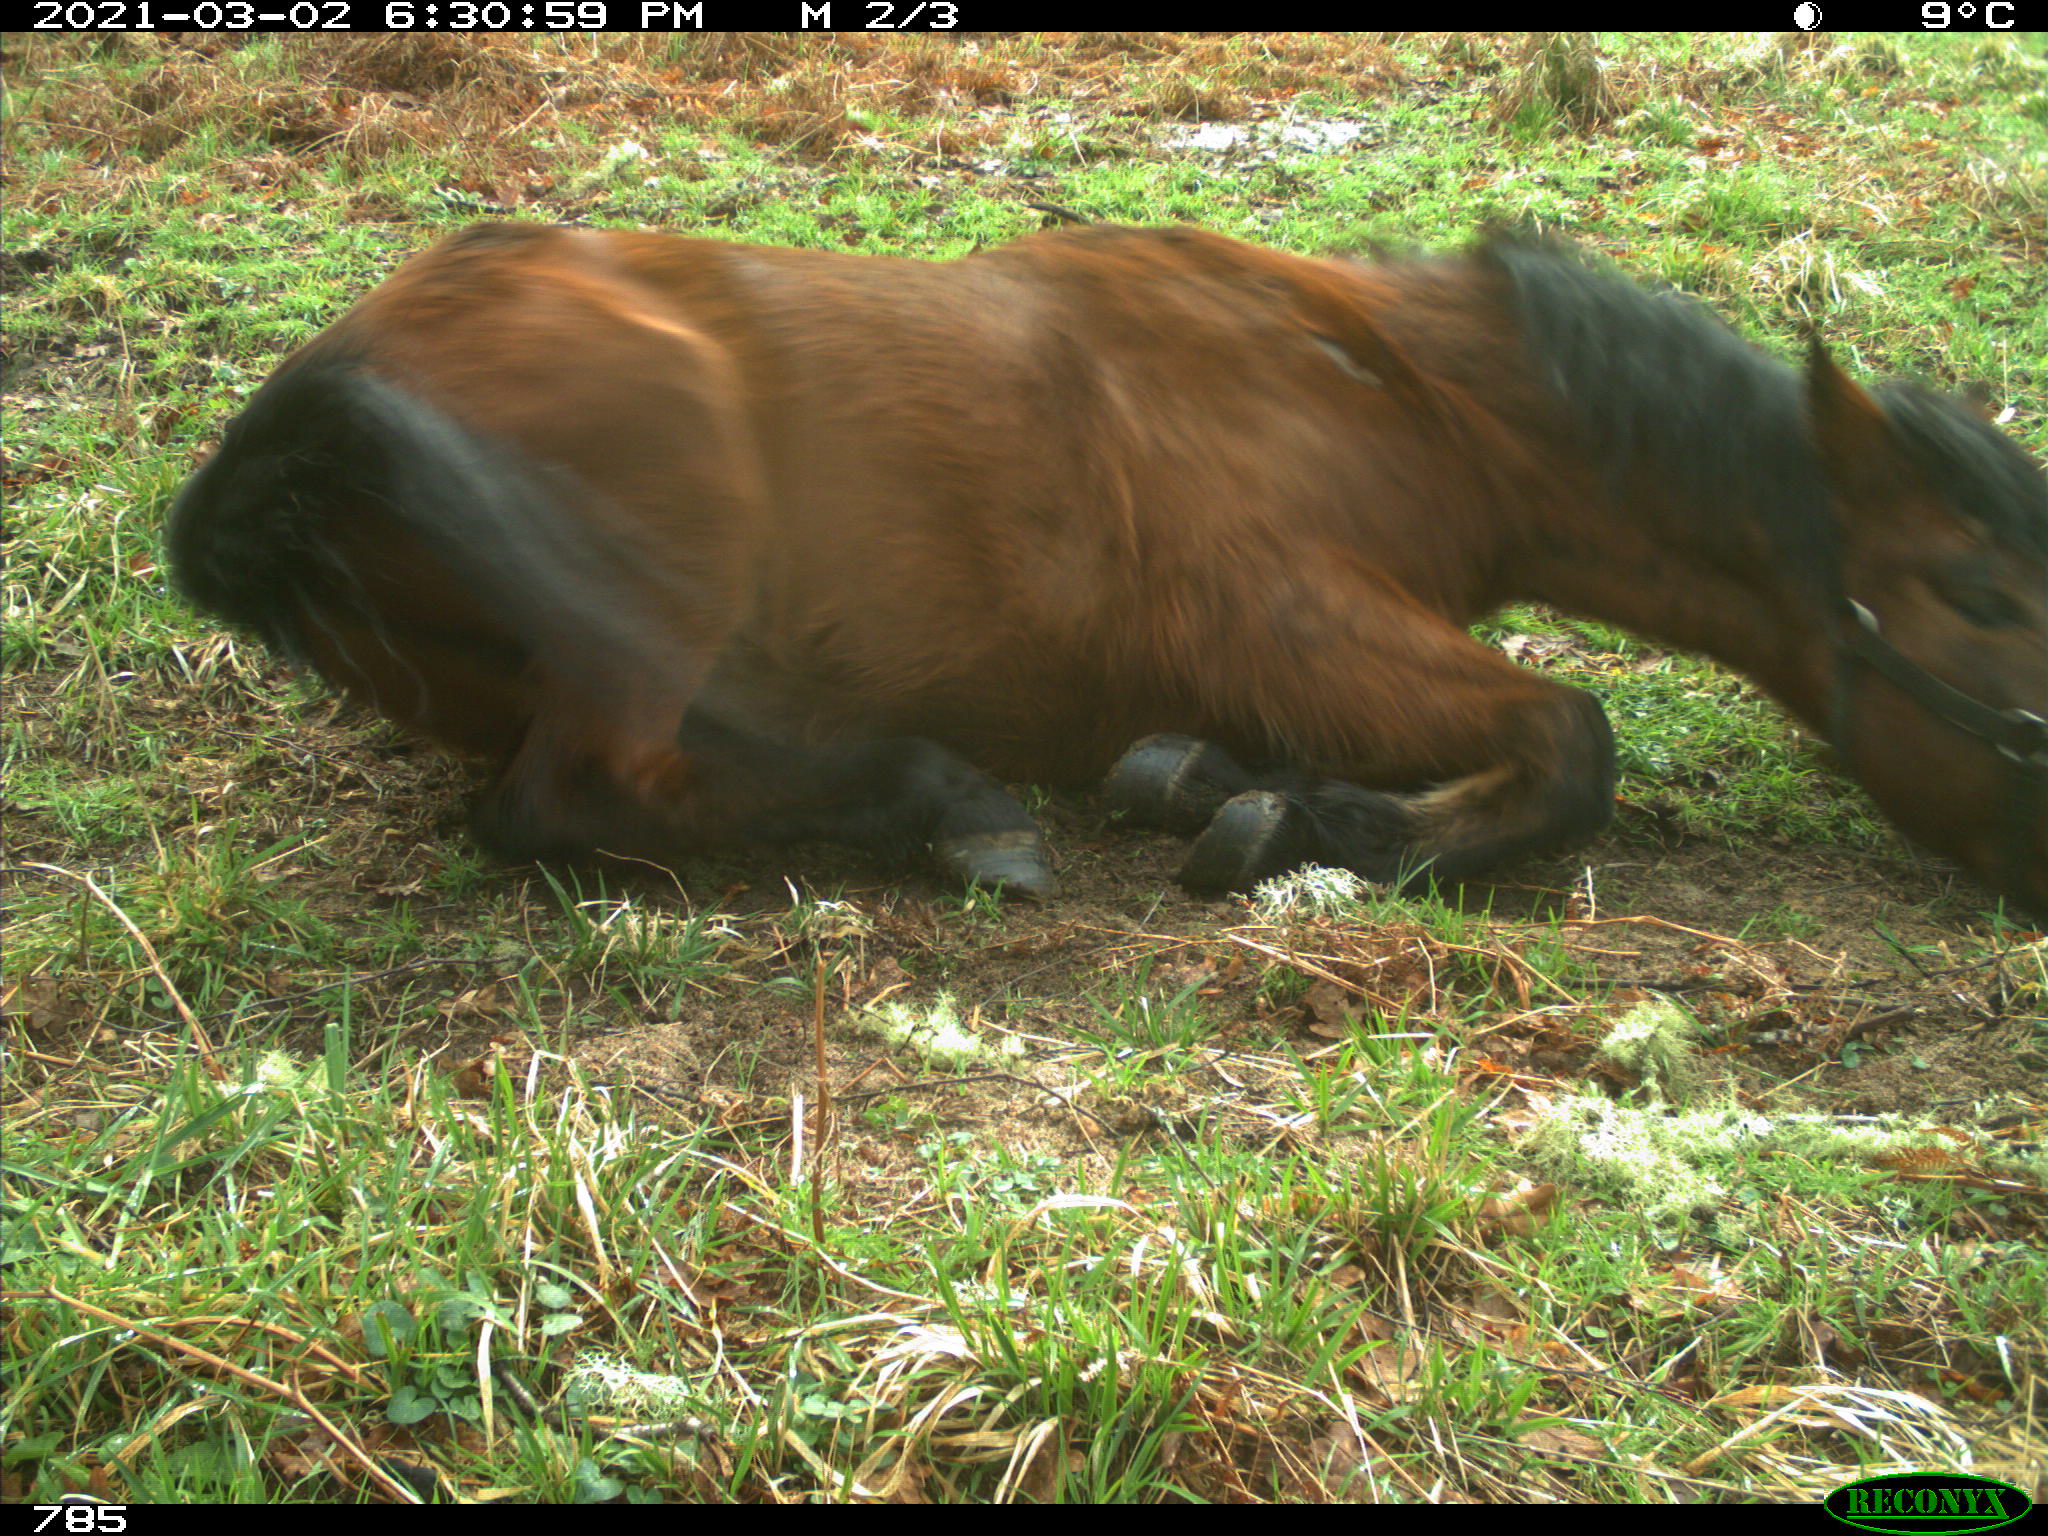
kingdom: Animalia
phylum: Chordata
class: Mammalia
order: Perissodactyla
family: Equidae
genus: Equus
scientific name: Equus caballus
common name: Horse
